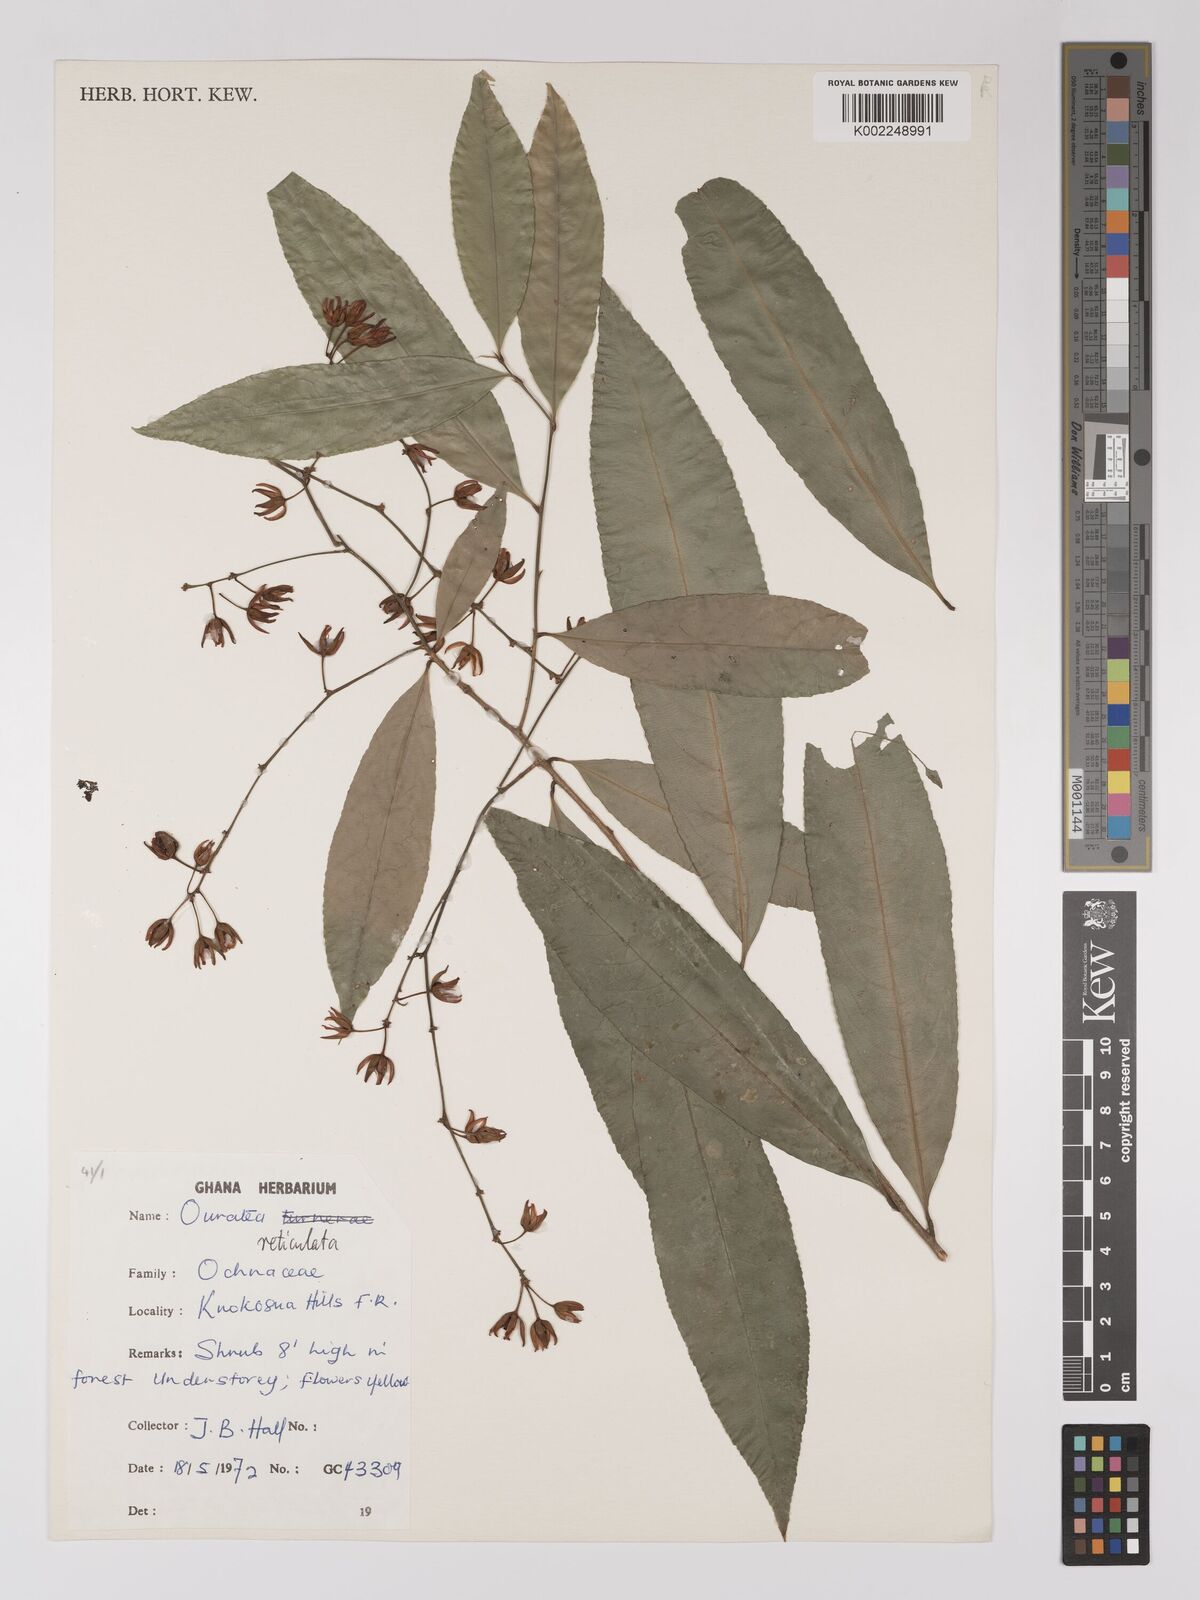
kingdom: Plantae
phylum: Tracheophyta
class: Magnoliopsida
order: Malpighiales
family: Ochnaceae
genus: Campylospermum
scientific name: Campylospermum reticulatum
